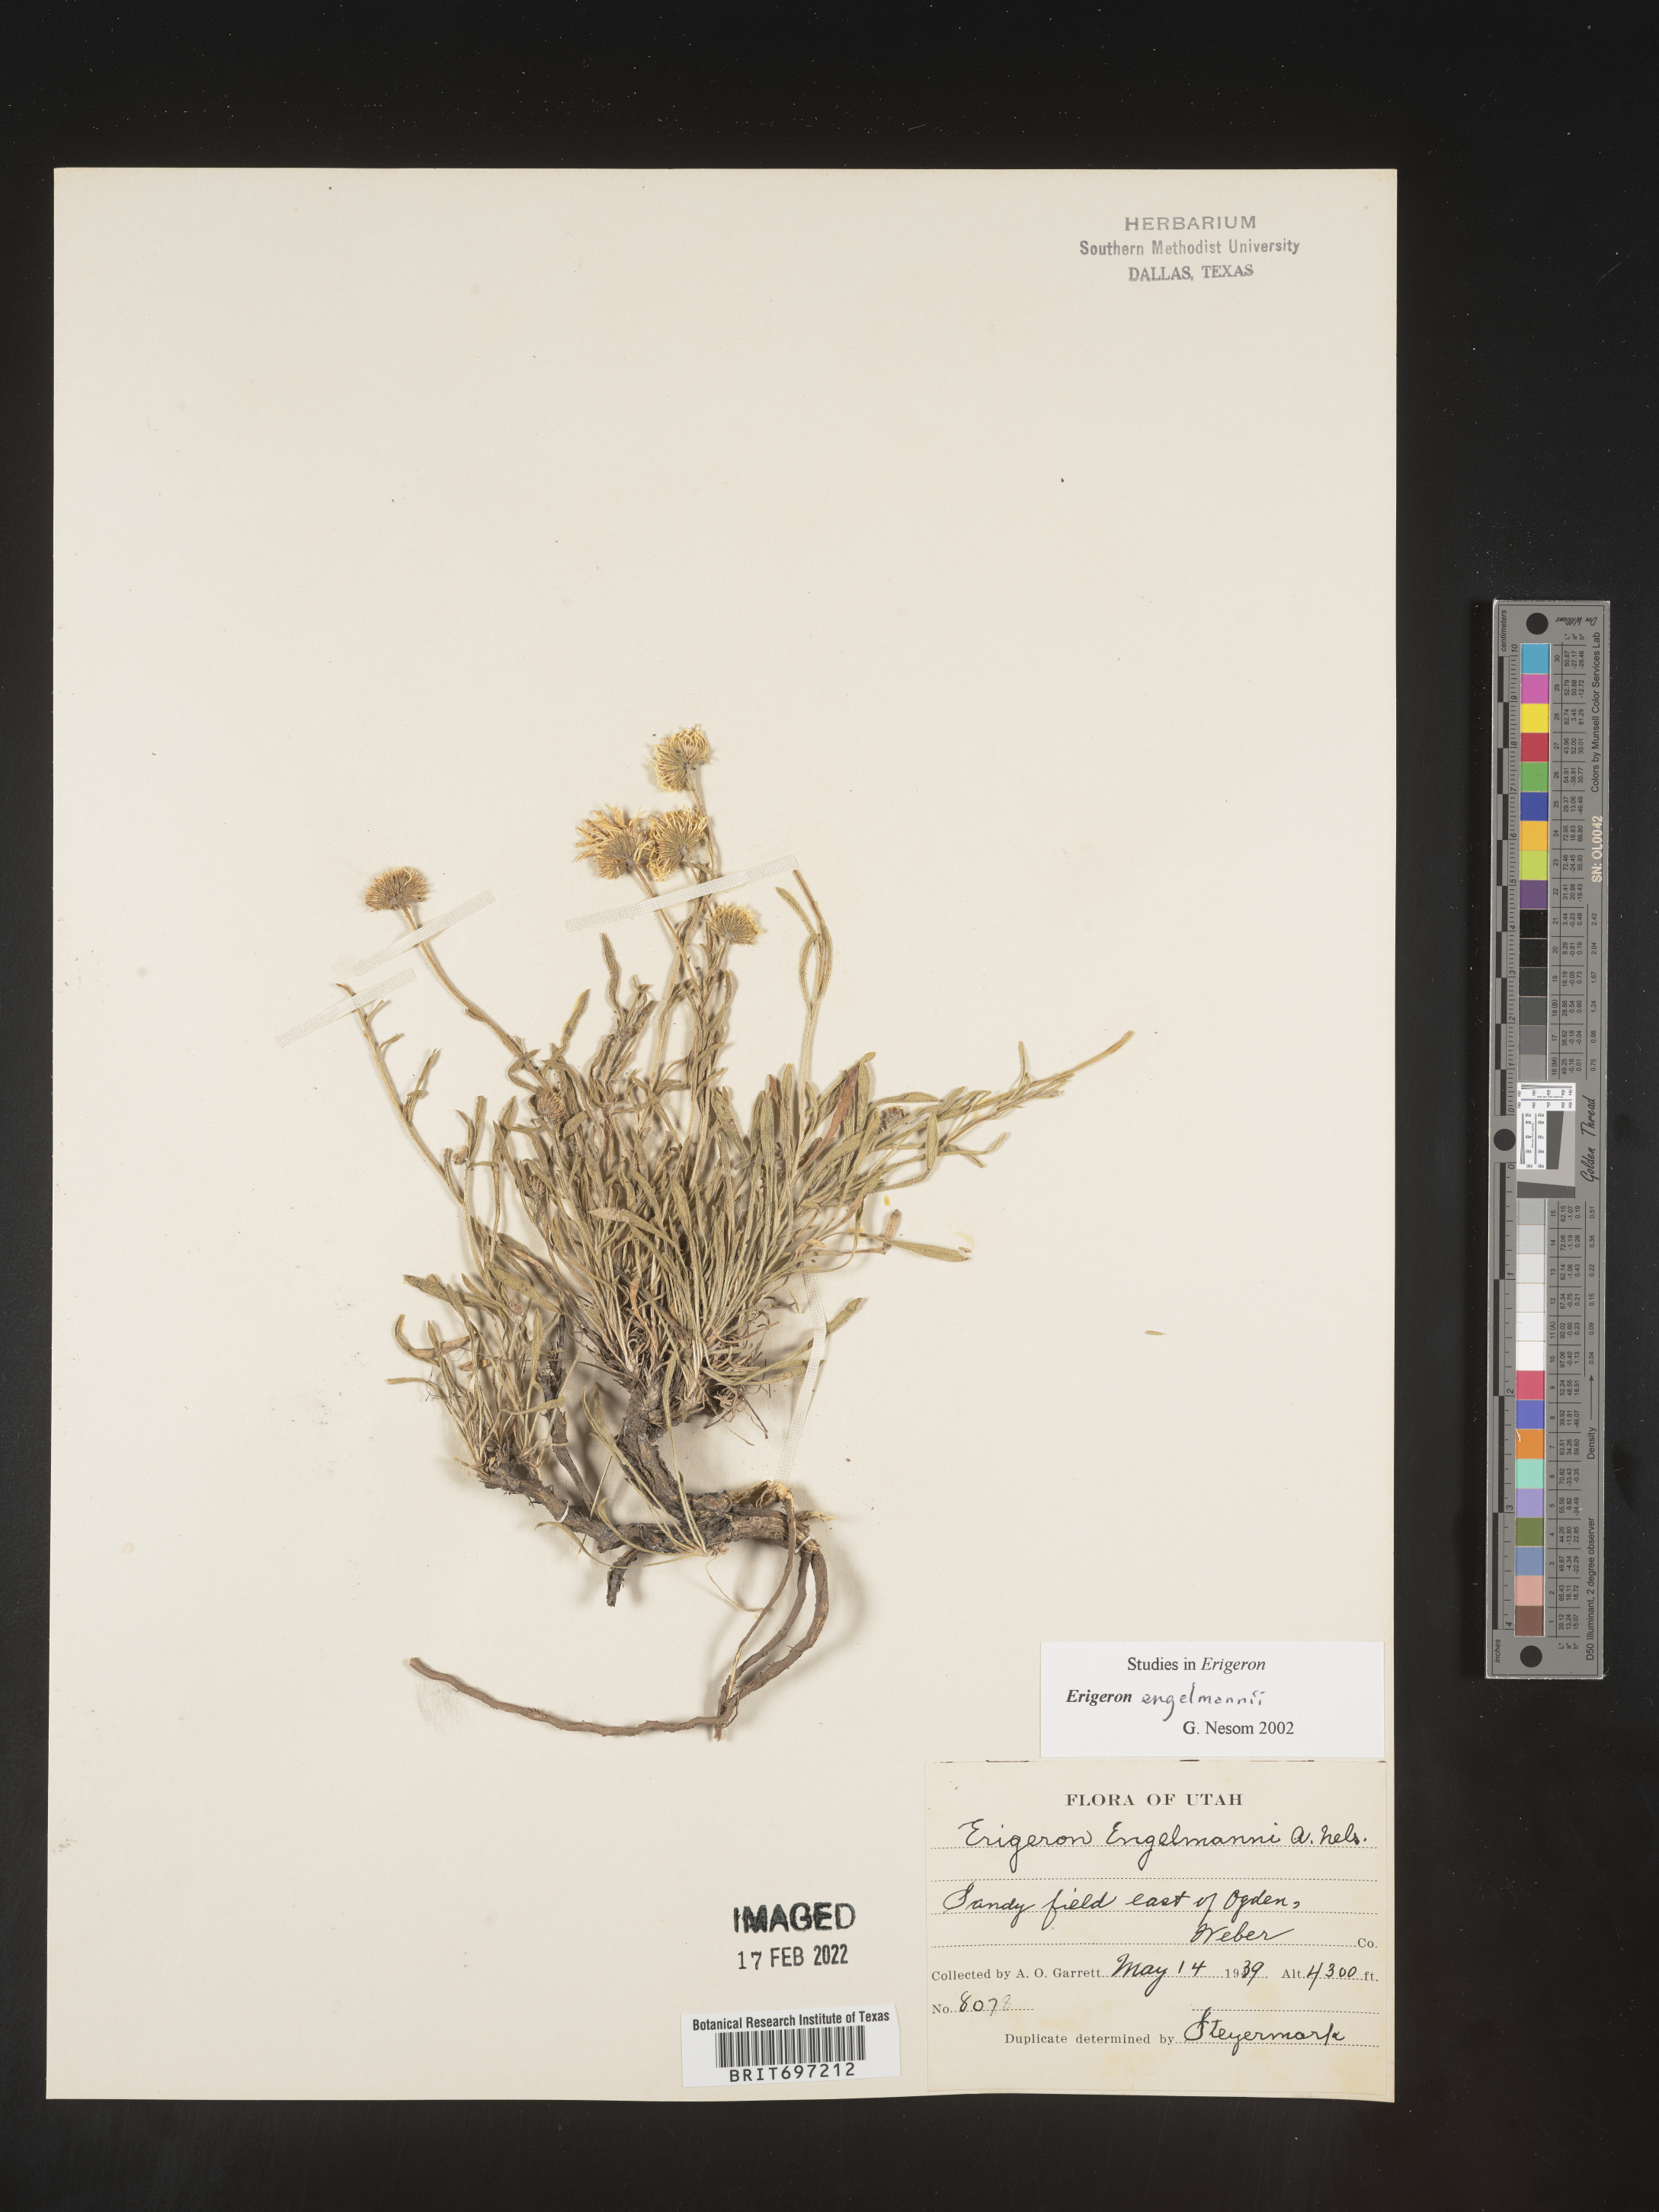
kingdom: Plantae
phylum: Tracheophyta
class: Magnoliopsida
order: Asterales
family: Asteraceae
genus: Erigeron
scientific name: Erigeron engelmannii
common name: Engelmann's fleabane
